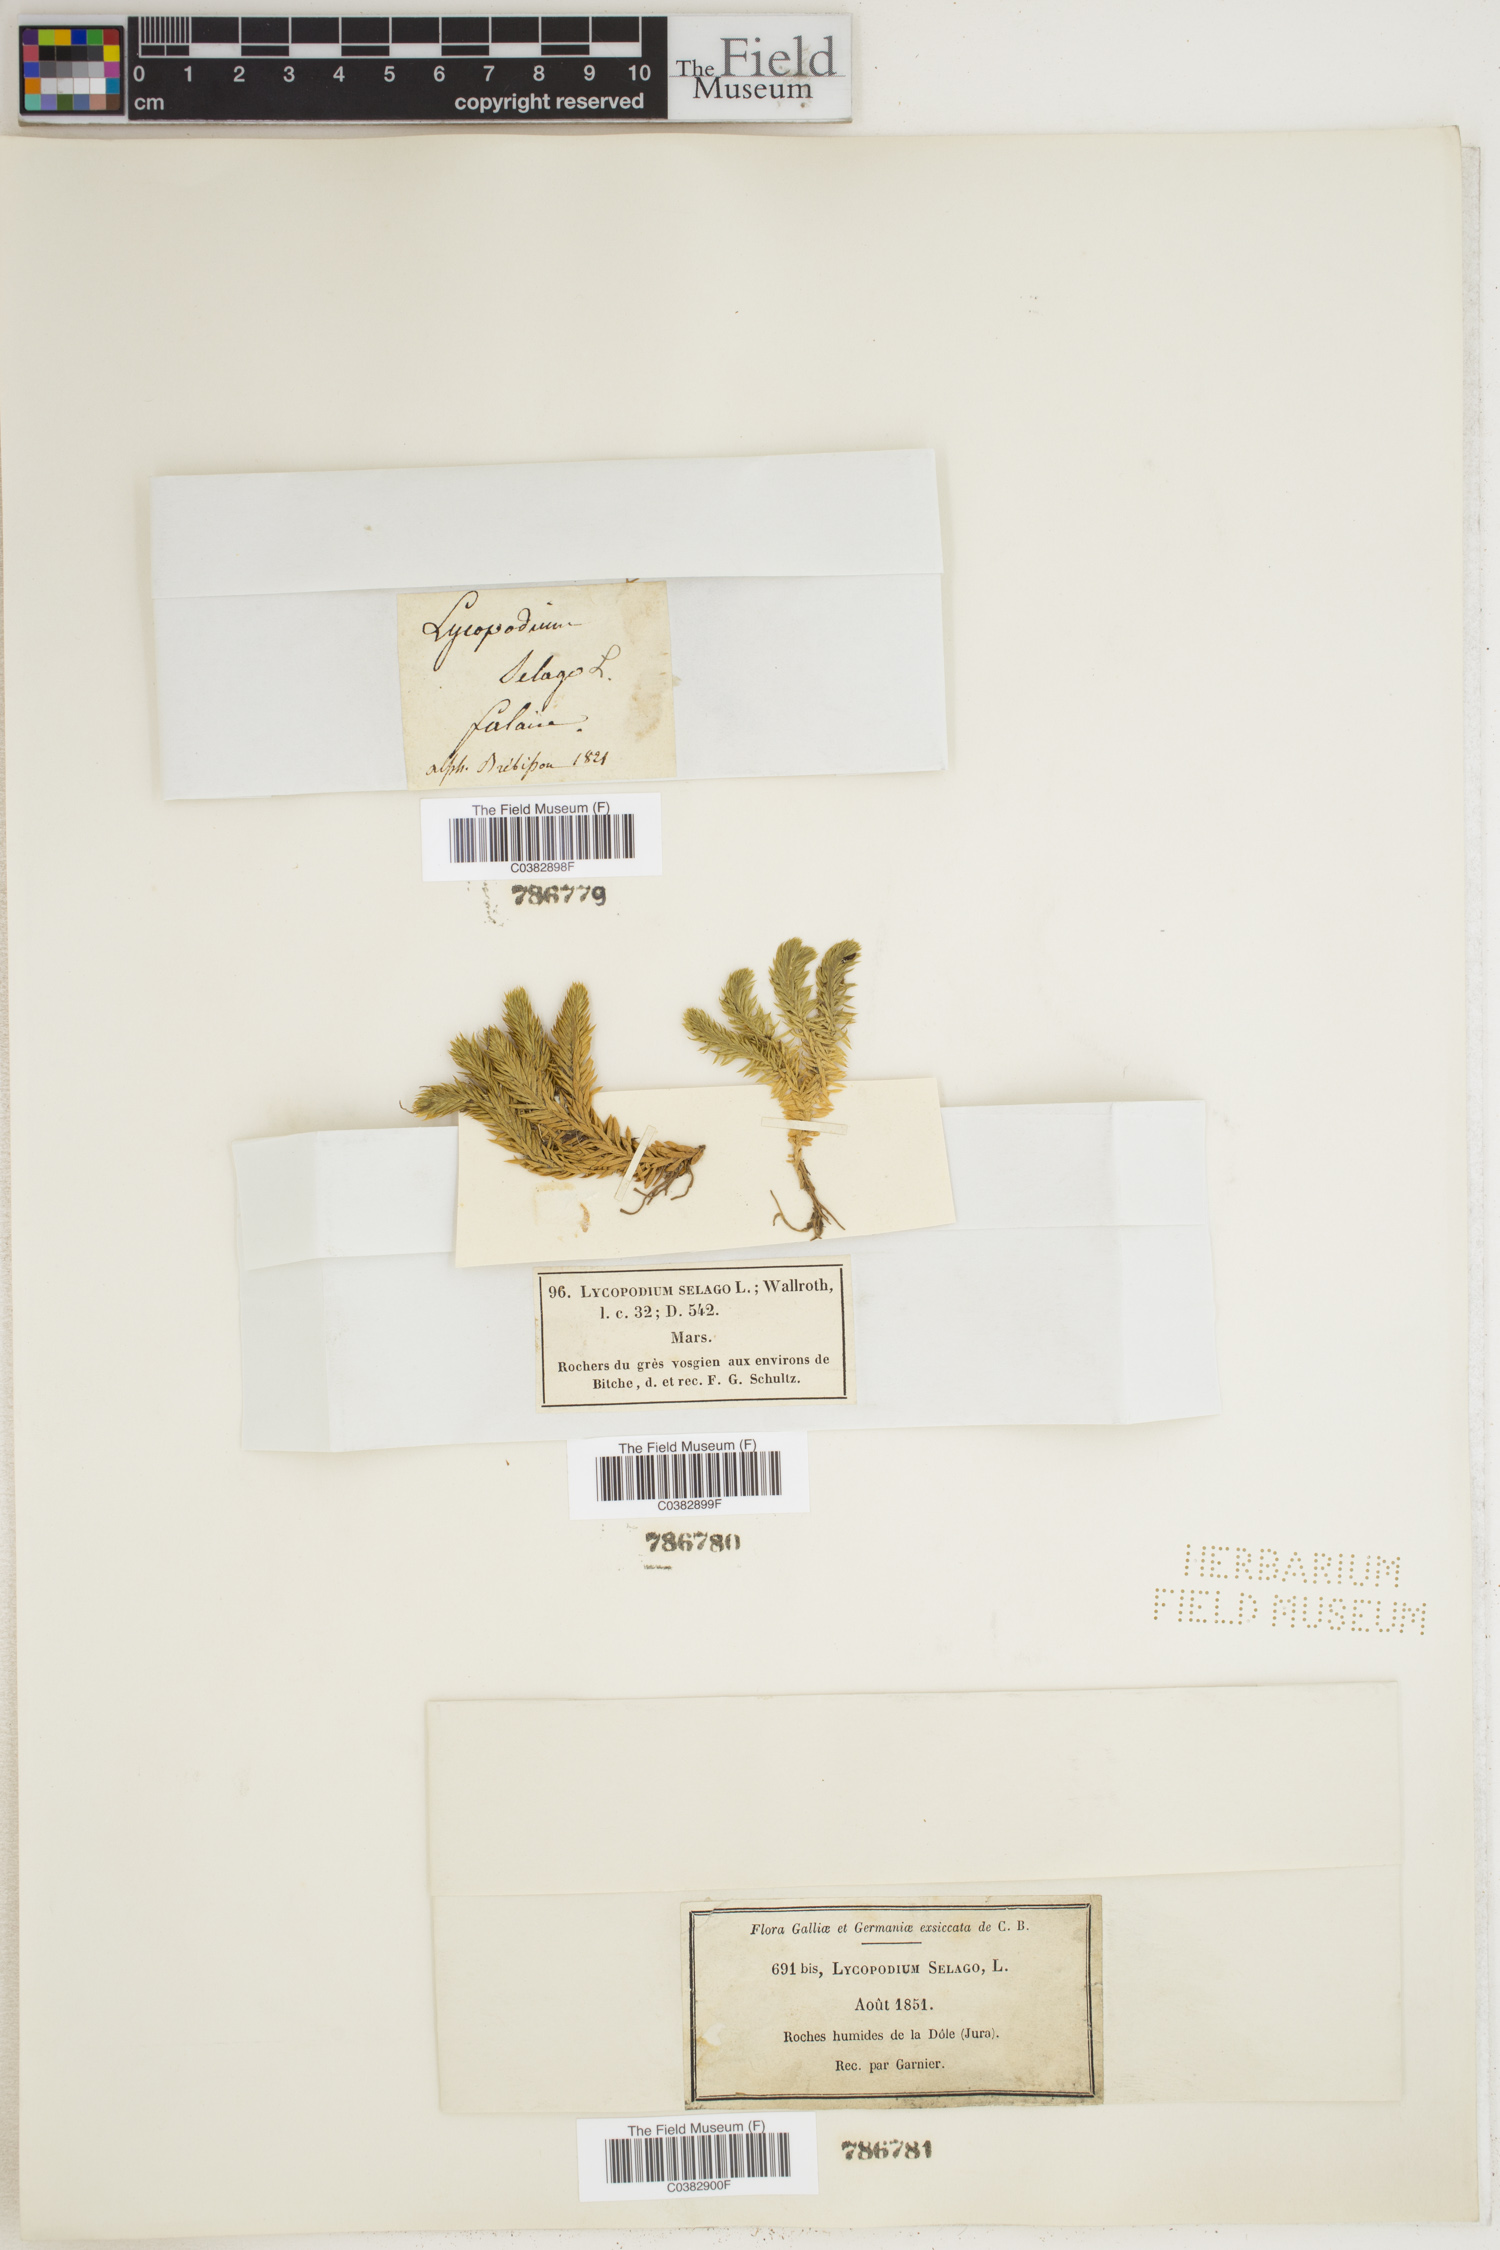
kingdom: Plantae
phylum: Tracheophyta
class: Lycopodiopsida
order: Lycopodiales
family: Lycopodiaceae
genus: Huperzia
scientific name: Huperzia selago
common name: Northern firmoss
